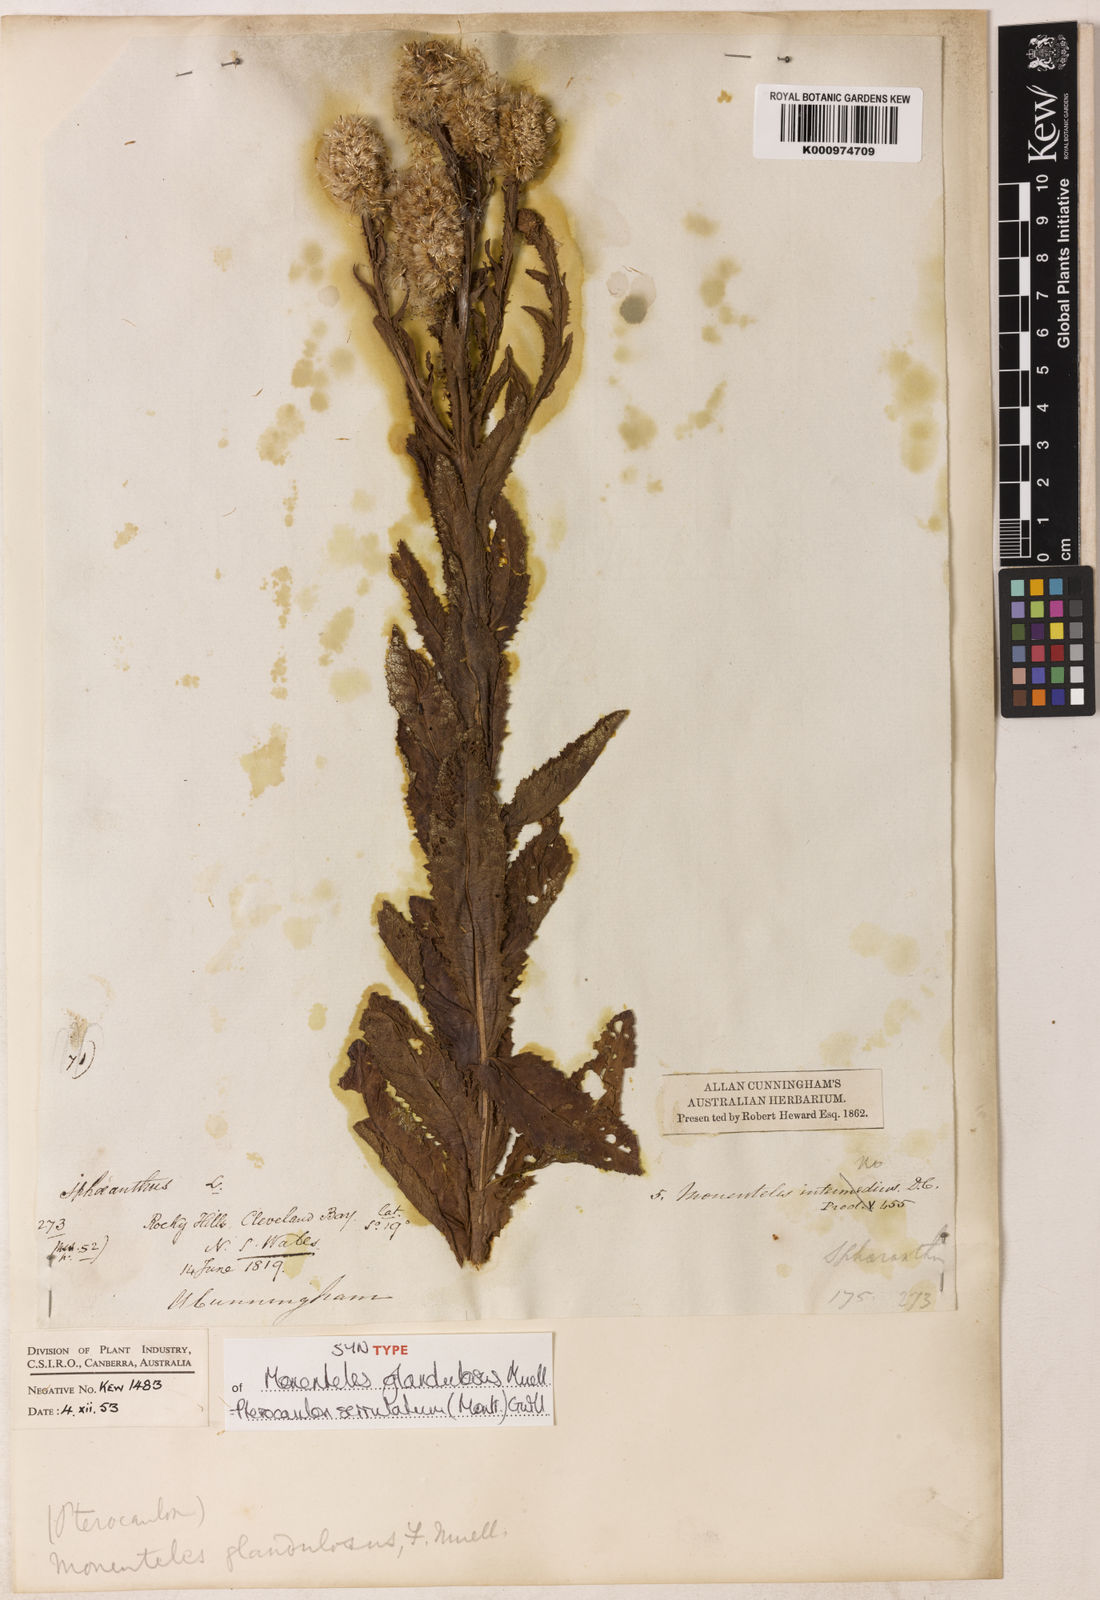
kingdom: Plantae
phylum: Tracheophyta
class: Magnoliopsida
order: Asterales
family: Asteraceae
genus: Pterocaulon
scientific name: Pterocaulon serrulatum
